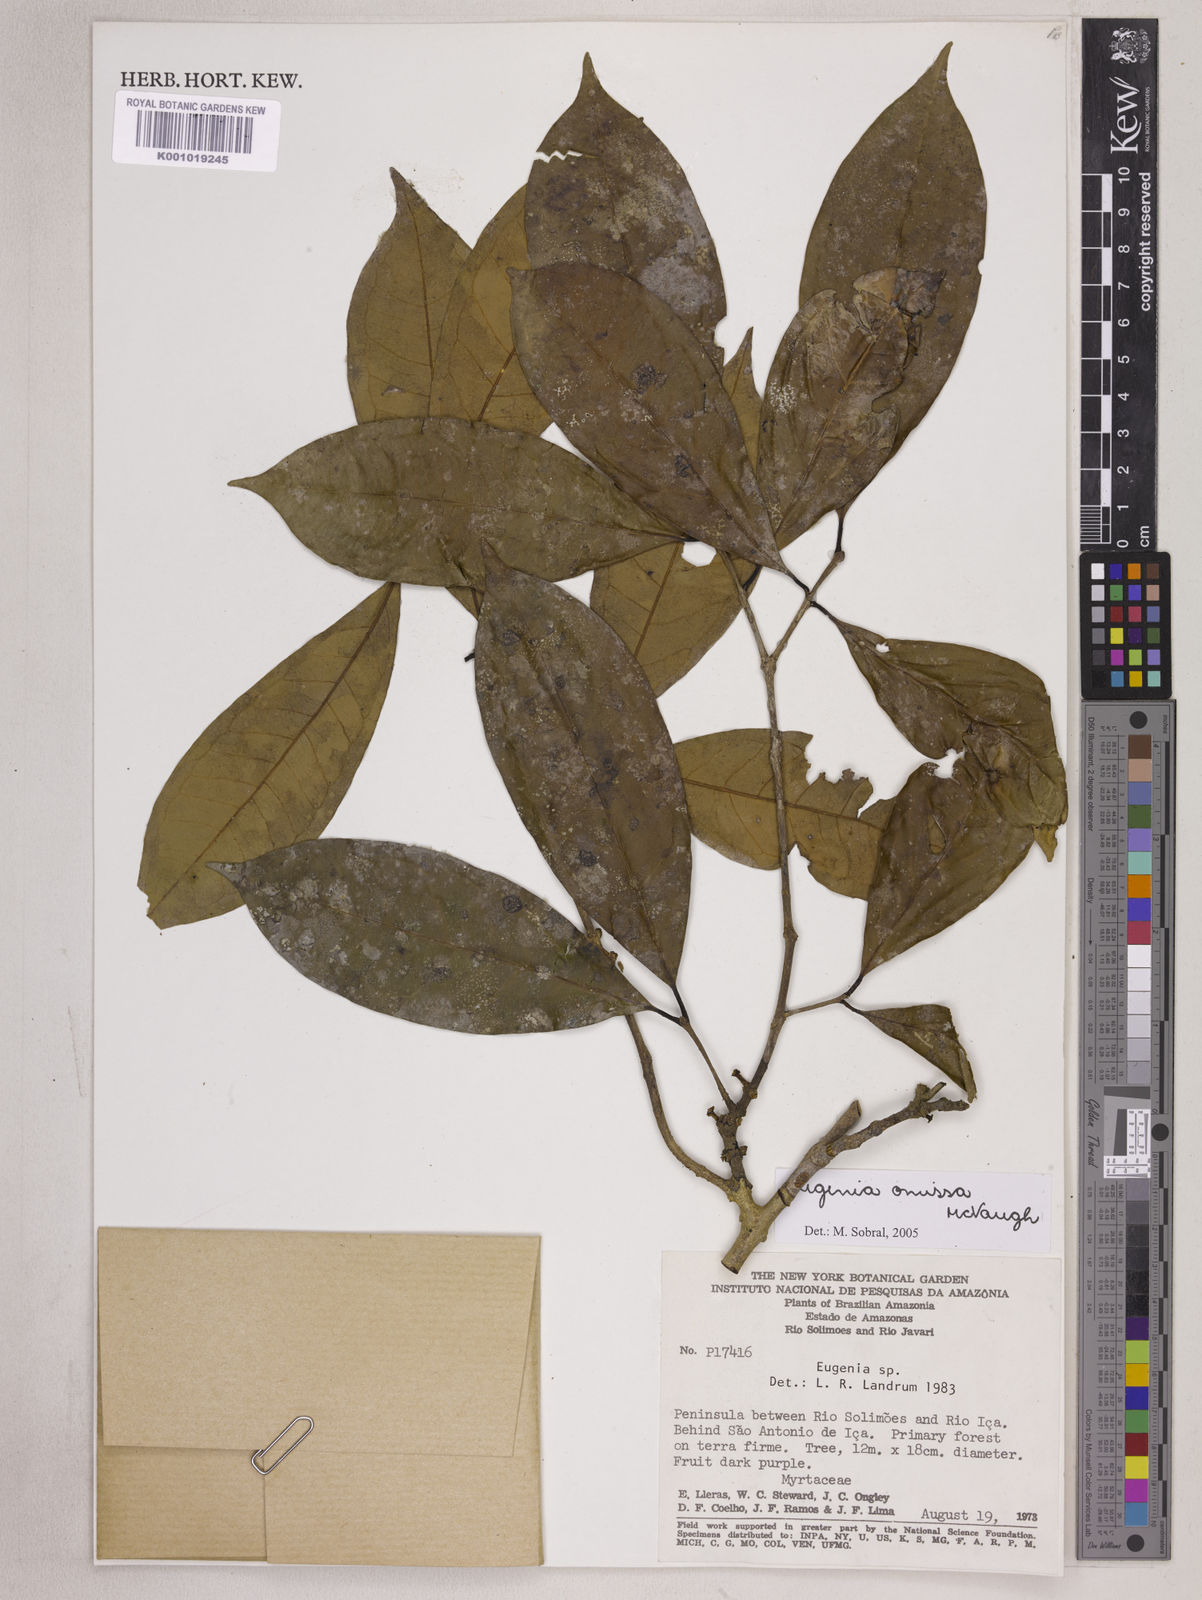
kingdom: Plantae
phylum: Tracheophyta
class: Magnoliopsida
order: Myrtales
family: Myrtaceae
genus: Eugenia
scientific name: Eugenia omissa
